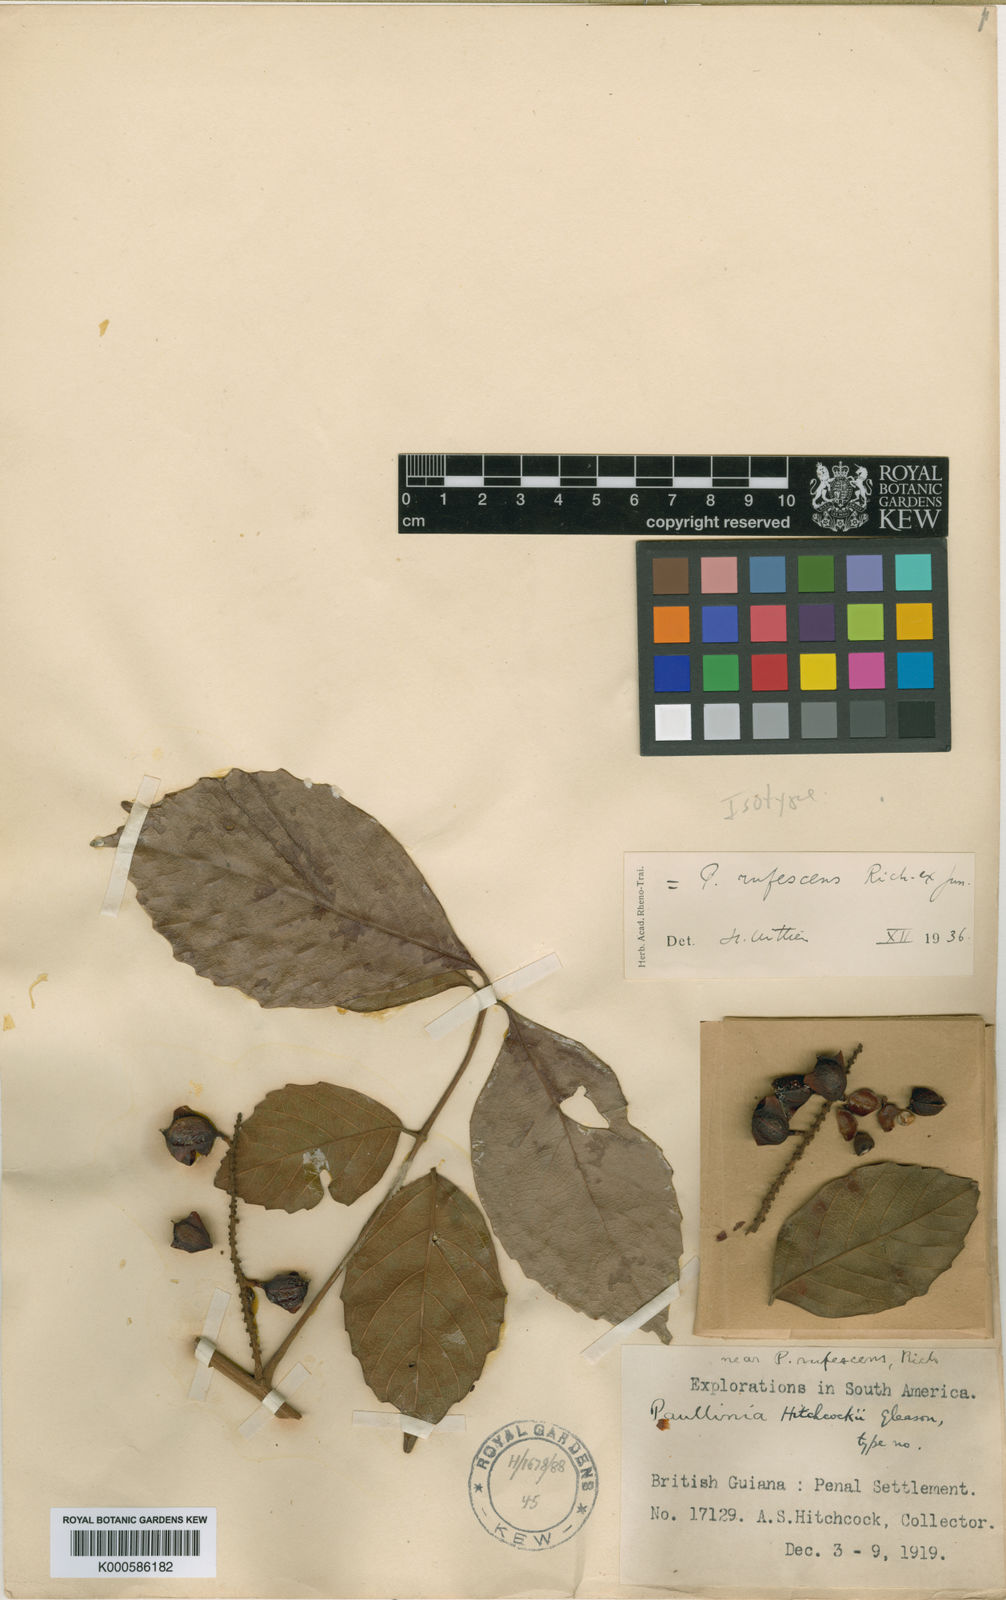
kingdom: Plantae
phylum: Tracheophyta
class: Magnoliopsida
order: Sapindales
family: Sapindaceae
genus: Paullinia
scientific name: Paullinia
